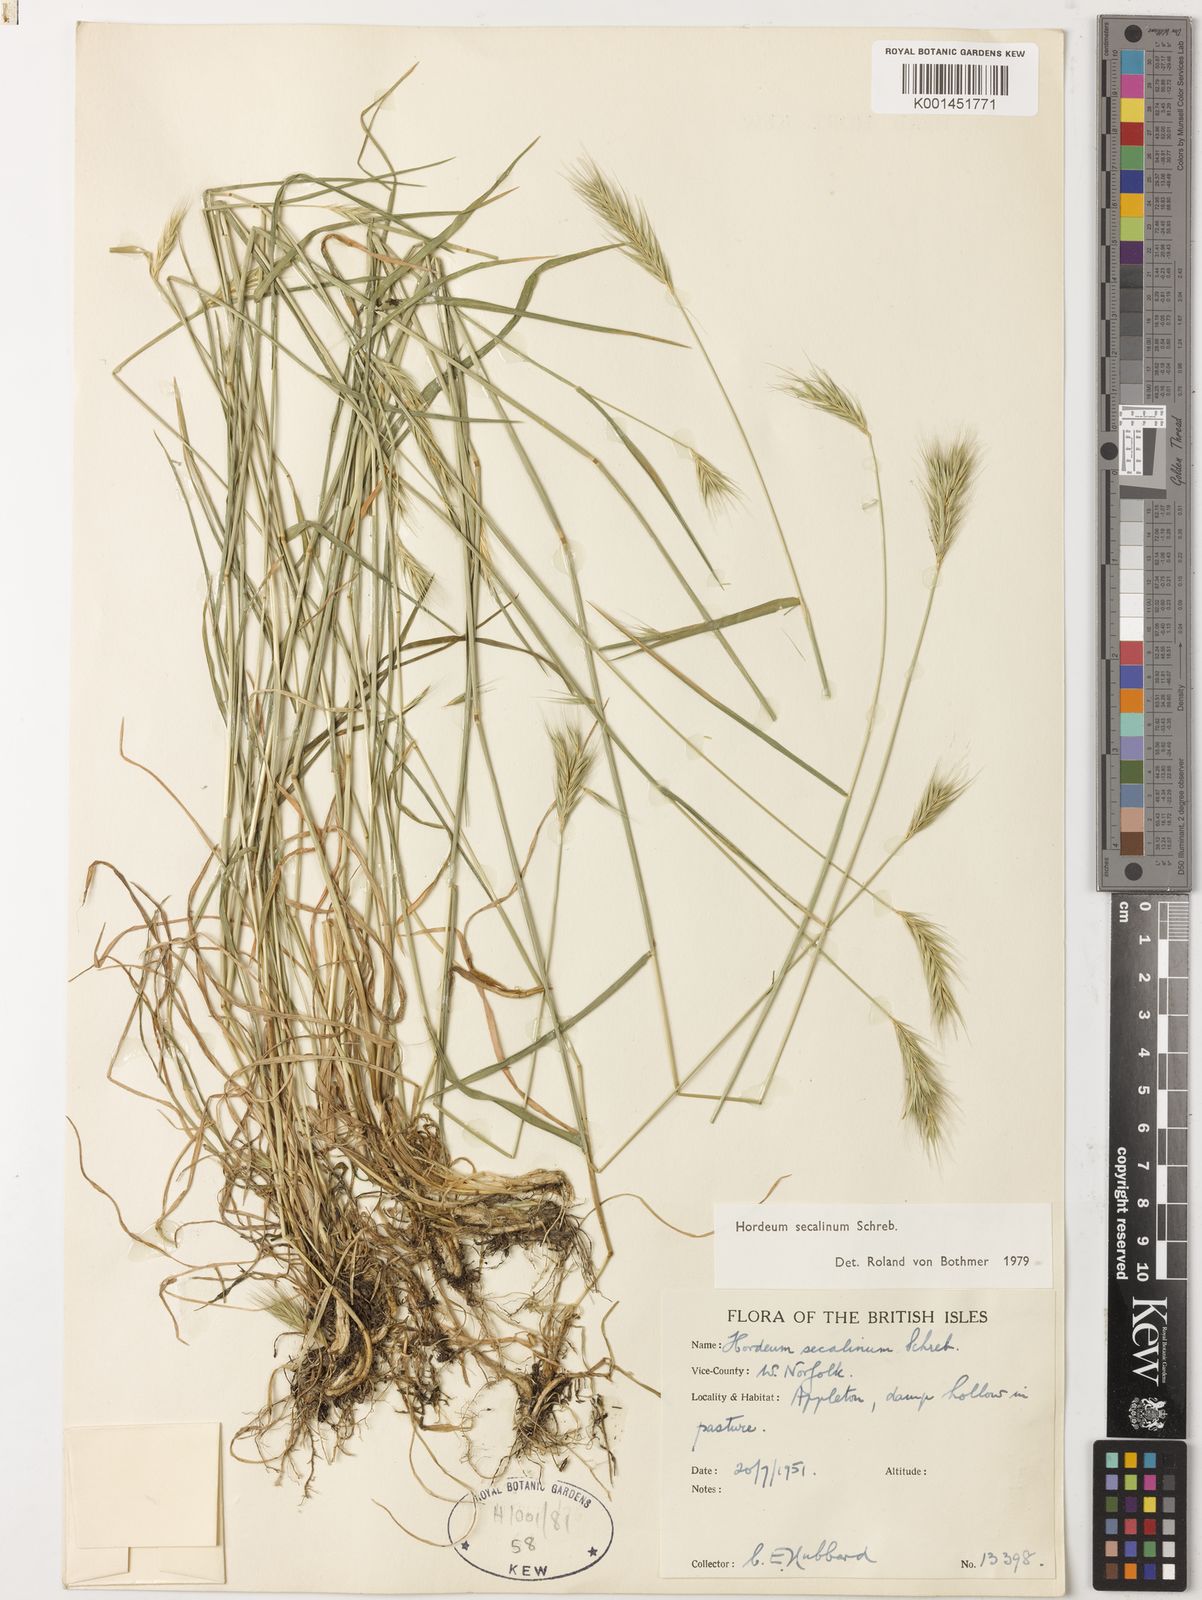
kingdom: Plantae
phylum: Tracheophyta
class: Liliopsida
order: Poales
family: Poaceae
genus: Hordeum
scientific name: Hordeum secalinum
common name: Meadow barley
